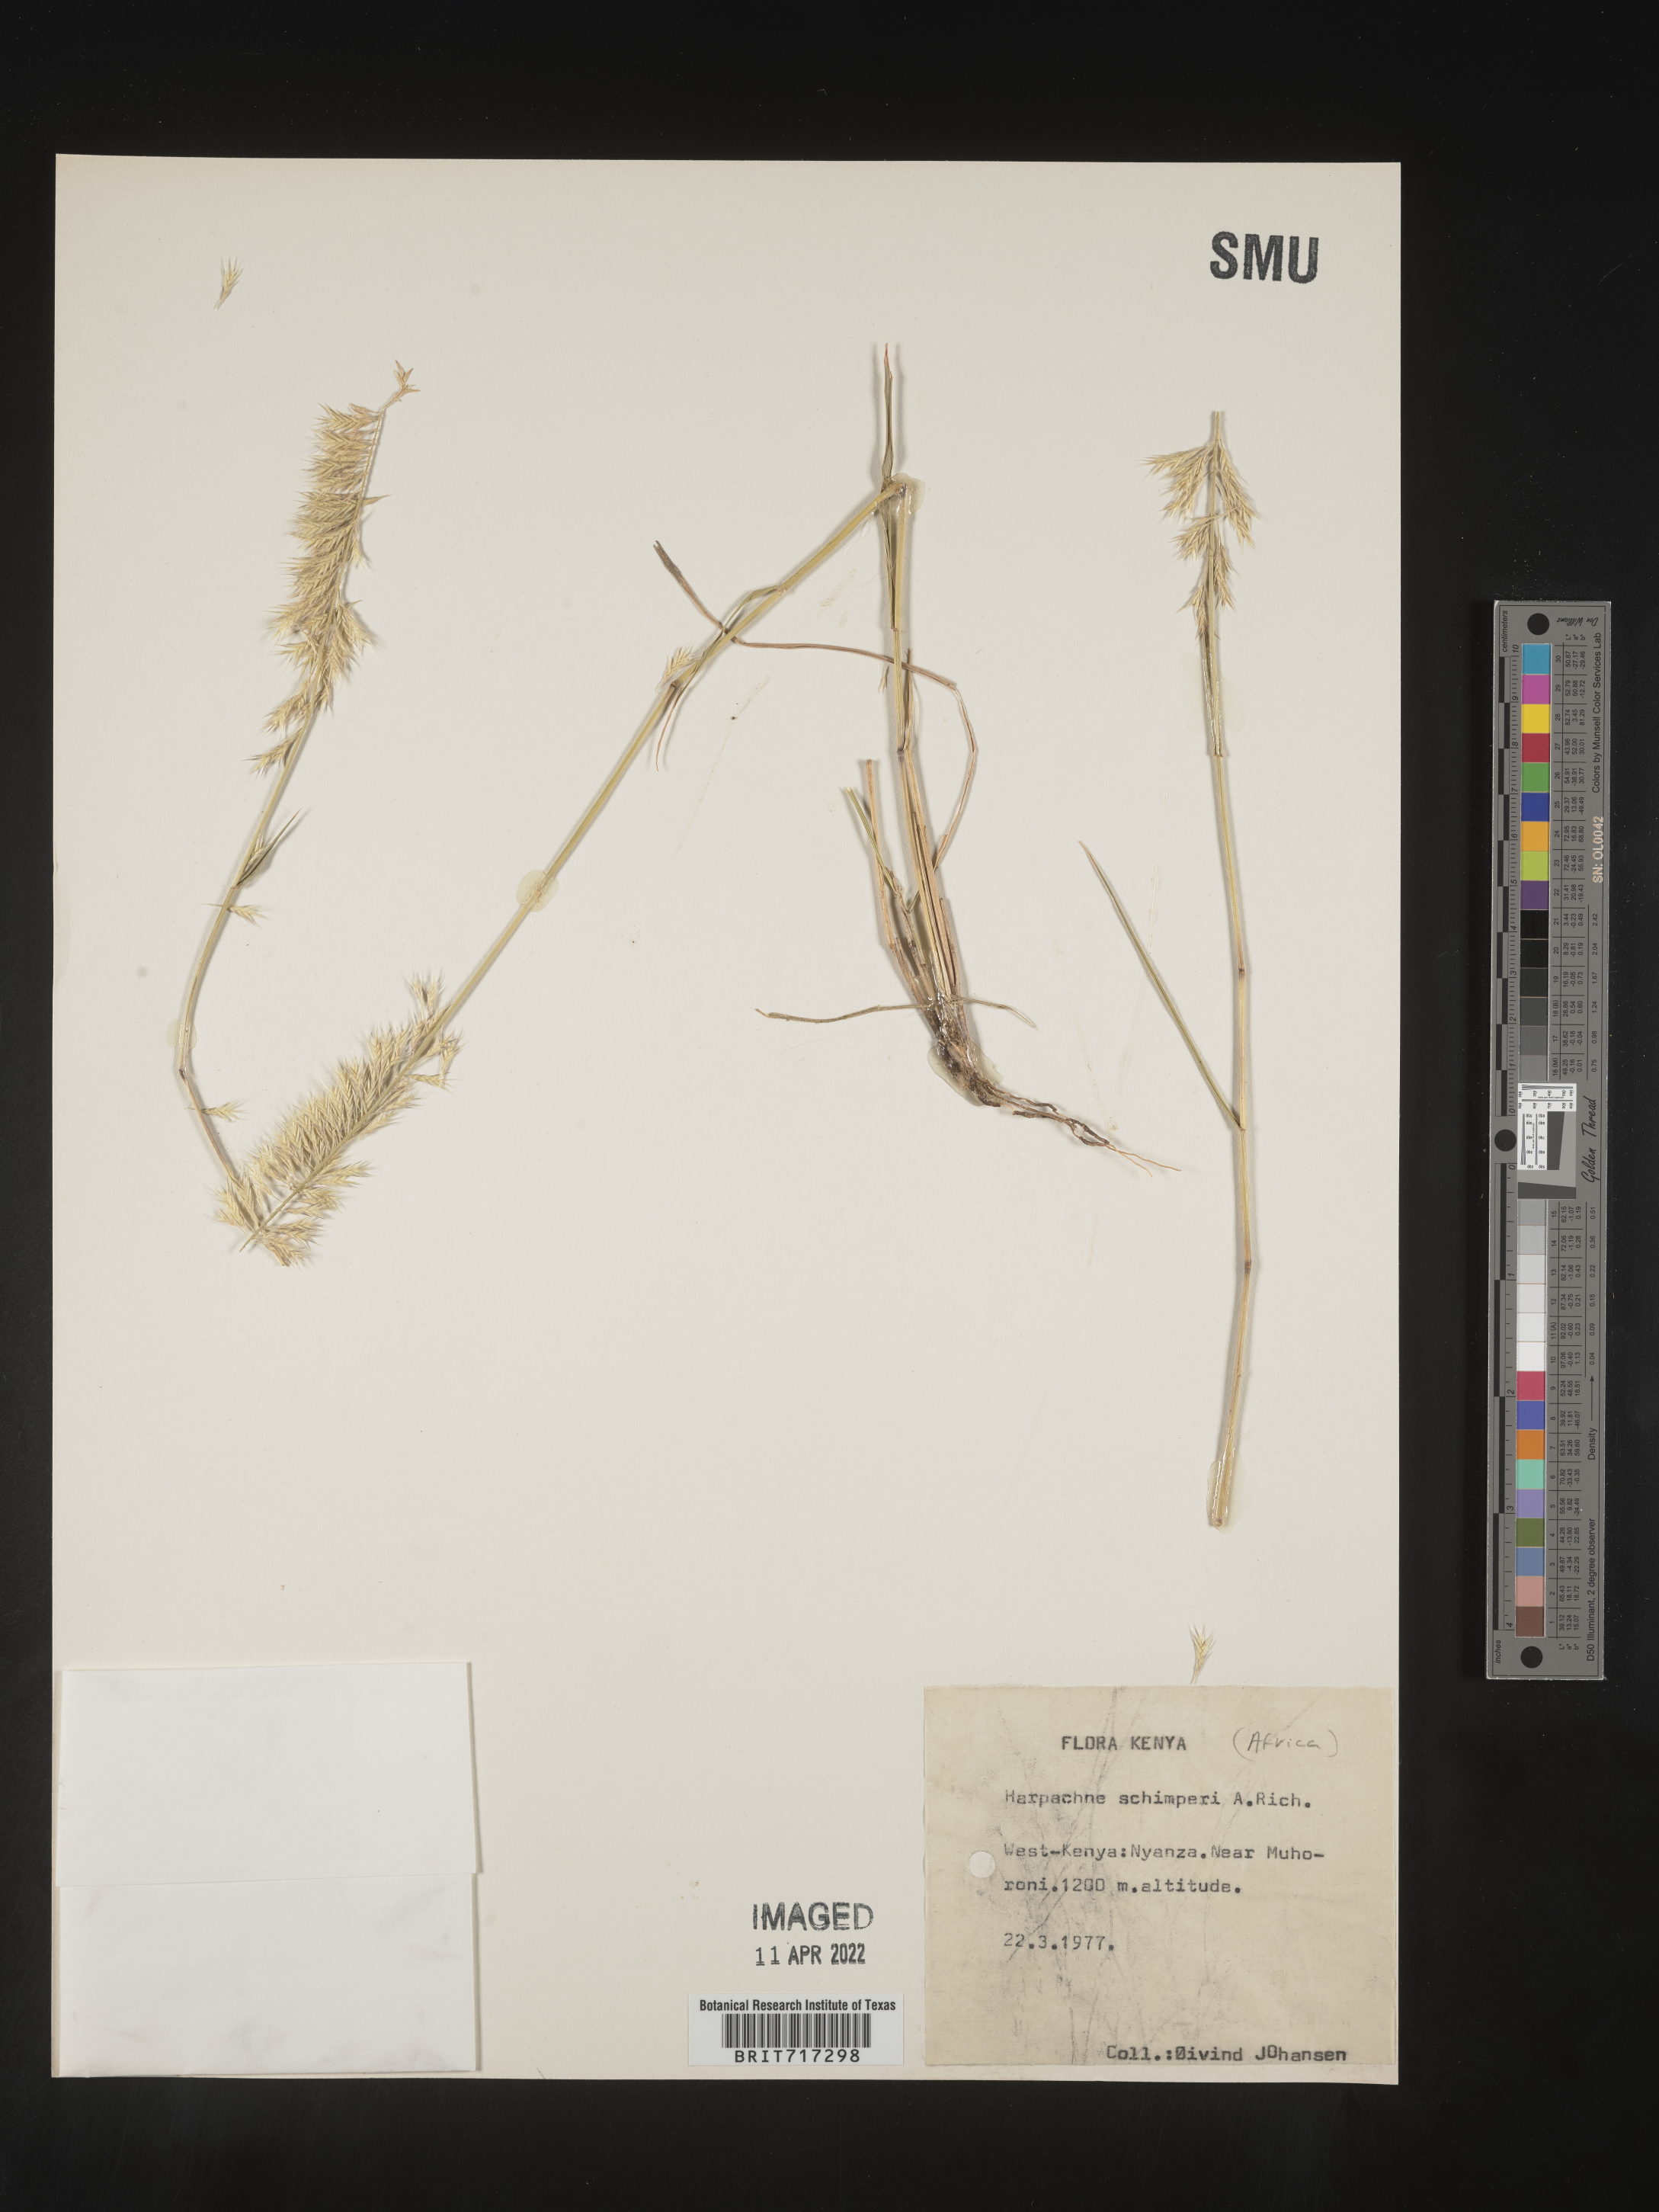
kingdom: Plantae
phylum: Tracheophyta
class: Liliopsida
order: Poales
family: Poaceae
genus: Harpachne
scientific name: Harpachne
